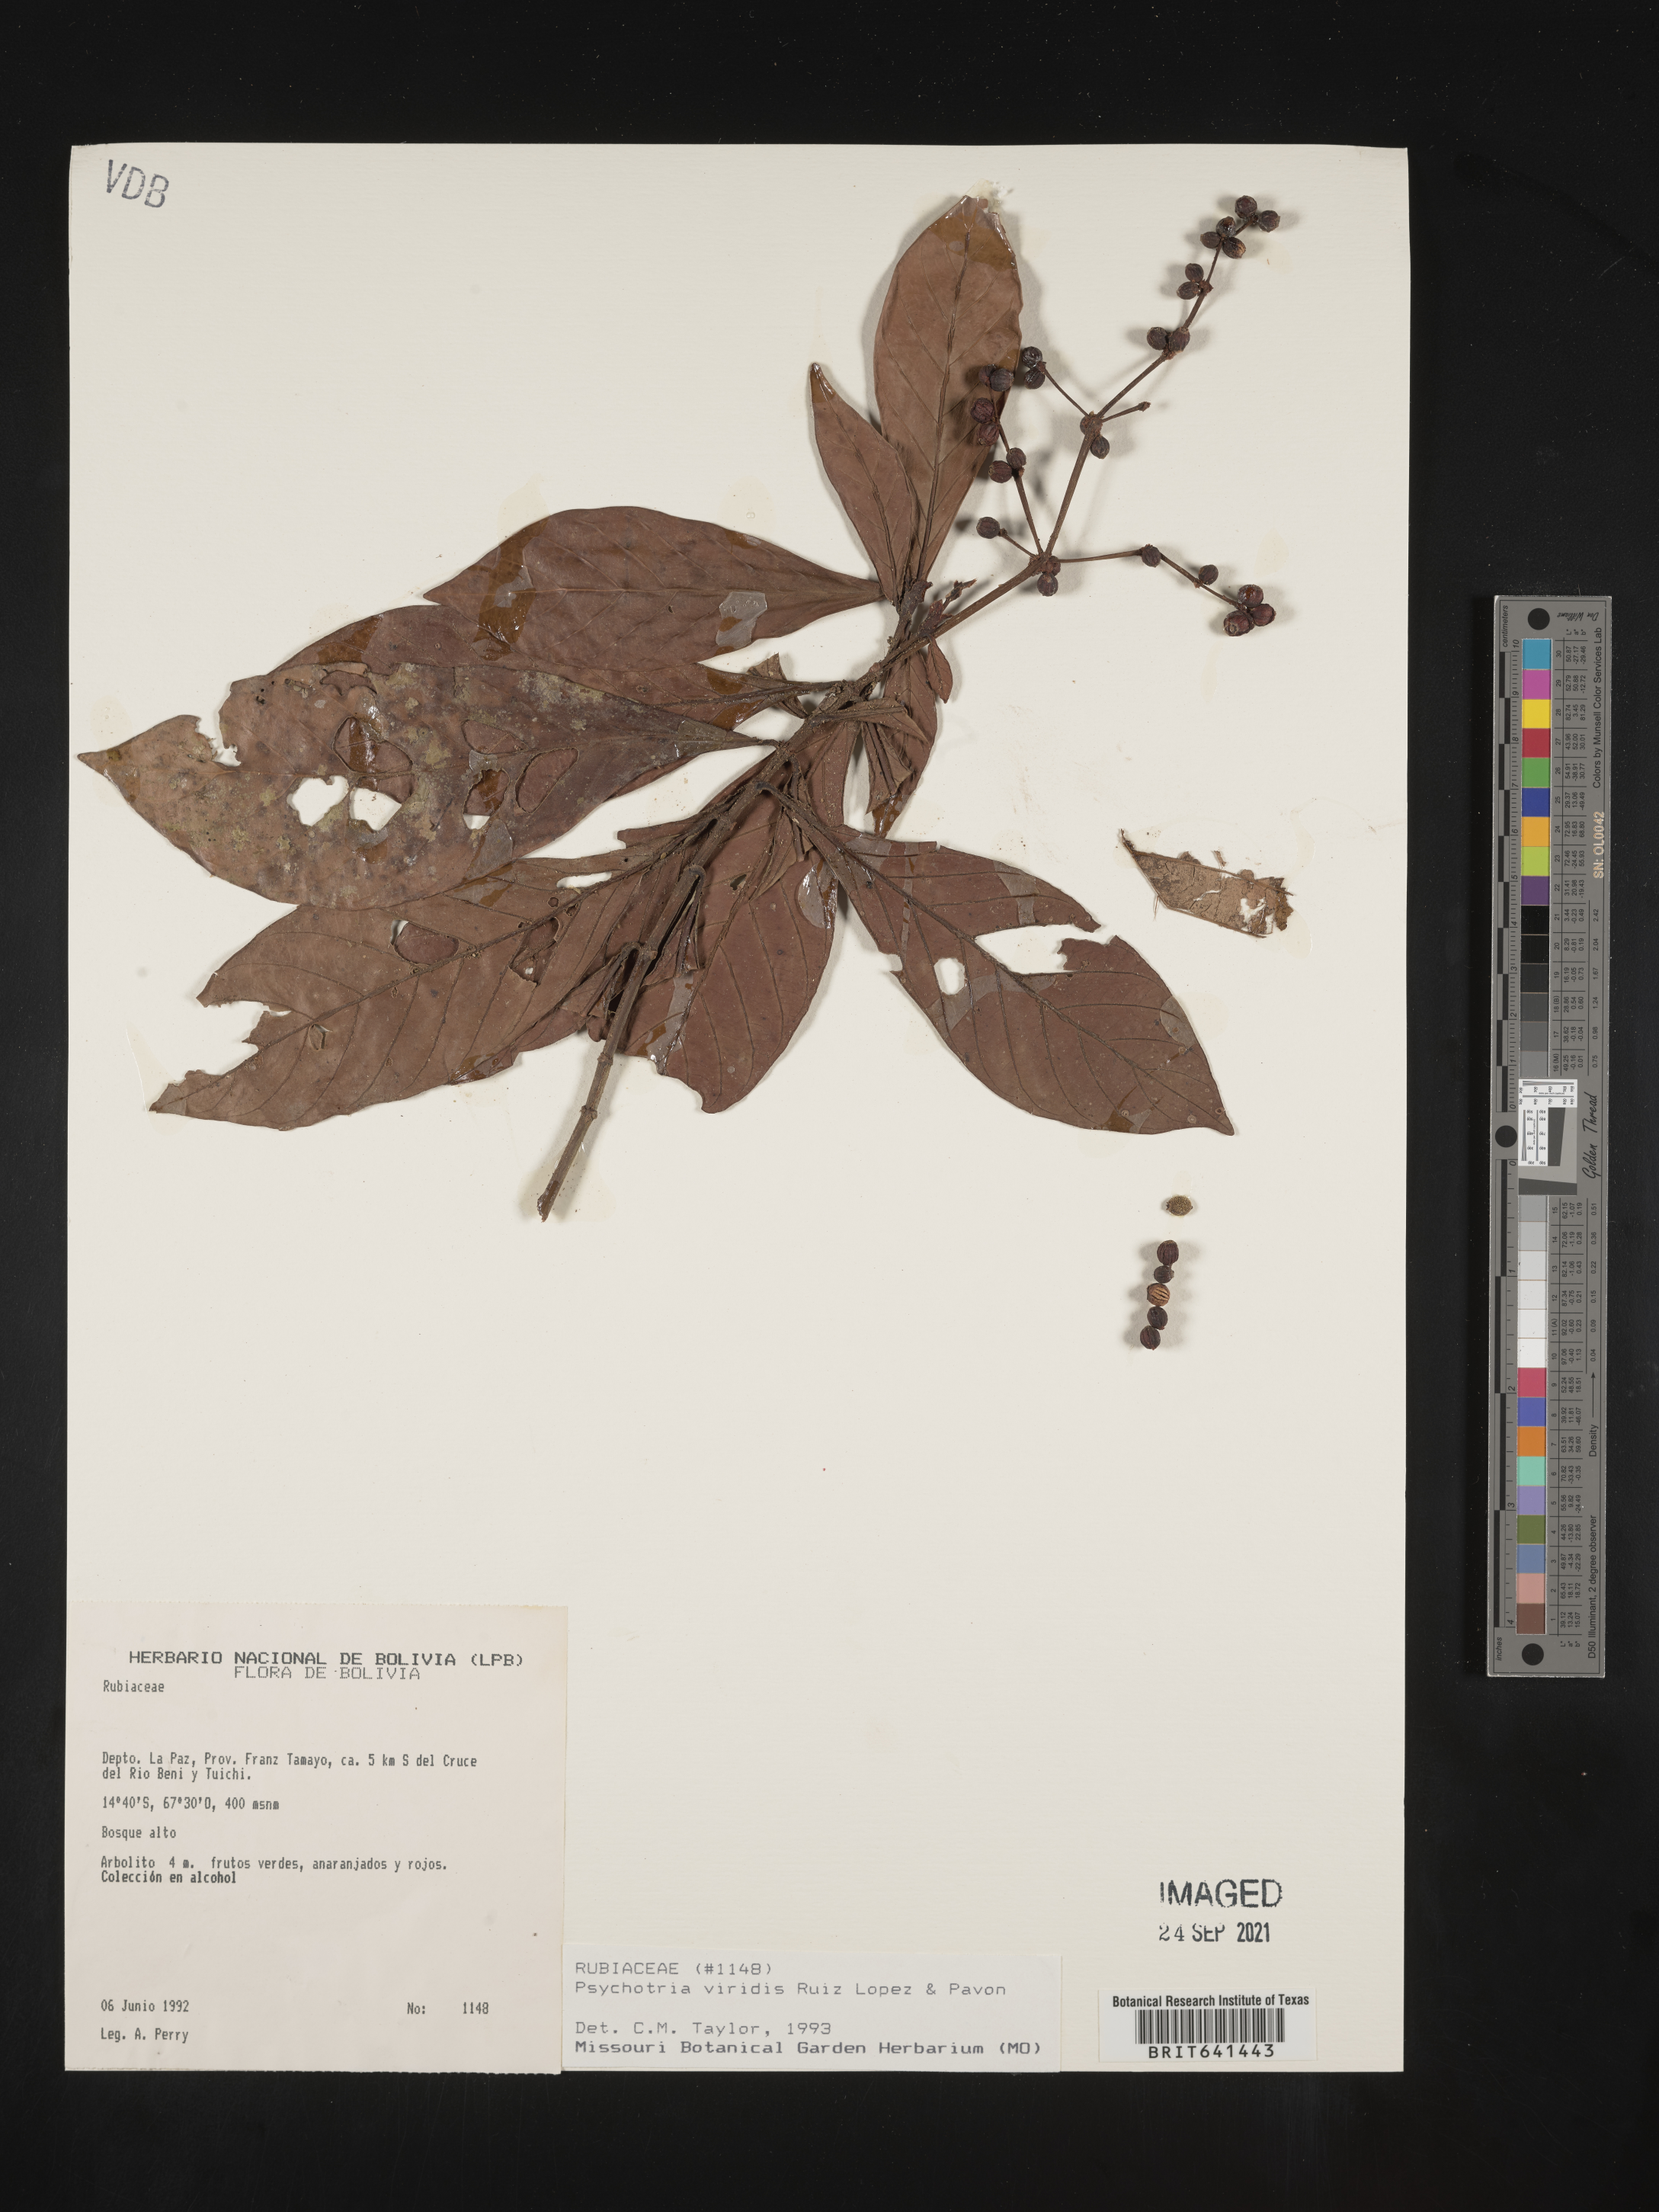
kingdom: Plantae
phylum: Tracheophyta
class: Magnoliopsida
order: Gentianales
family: Rubiaceae
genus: Psychotria
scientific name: Psychotria
